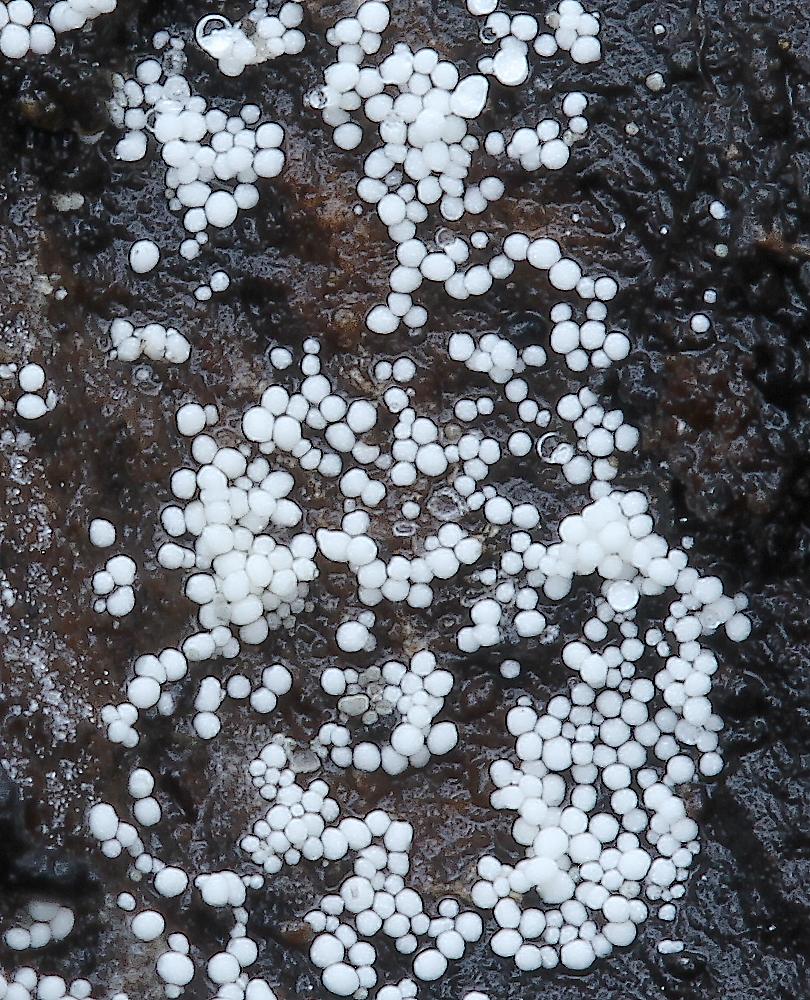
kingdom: Fungi
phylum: Basidiomycota
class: Agaricomycetes
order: Polyporales
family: Meruliaceae
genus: Bulbillomyces
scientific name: Bulbillomyces farinosus
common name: æg-kalkskind
